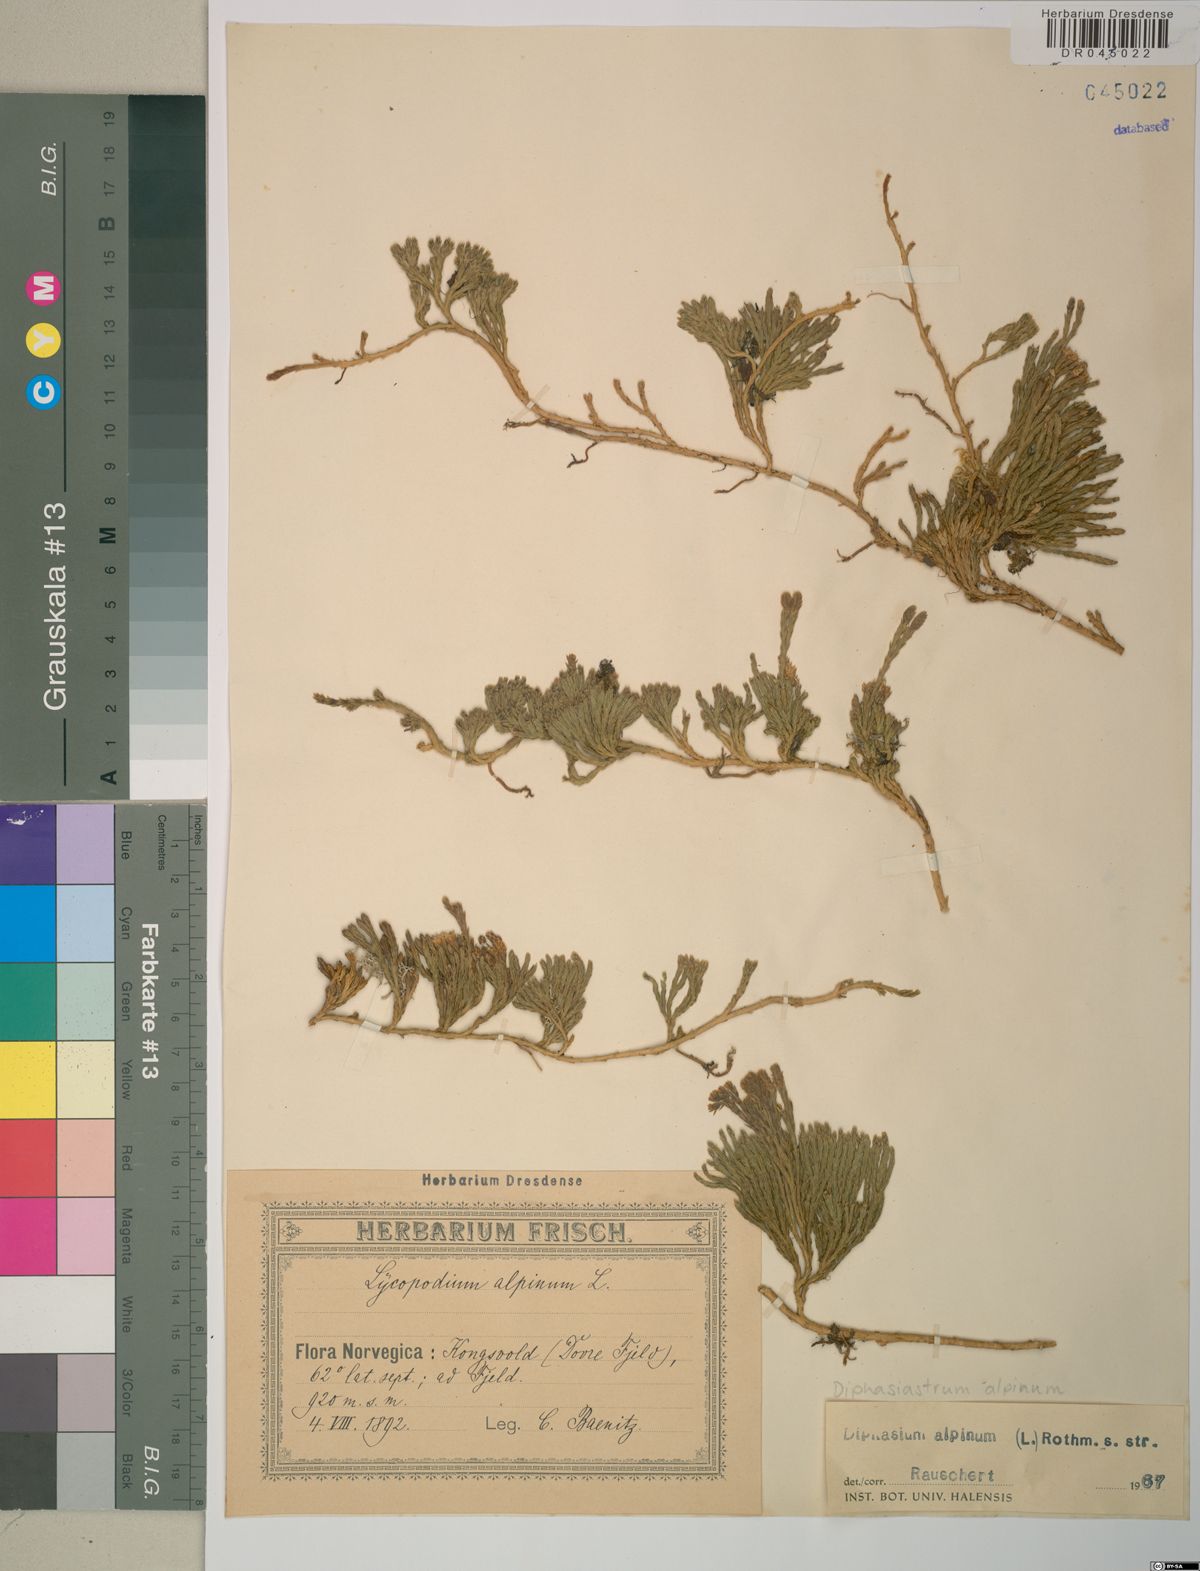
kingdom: Plantae
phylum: Tracheophyta
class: Lycopodiopsida
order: Lycopodiales
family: Lycopodiaceae
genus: Diphasiastrum
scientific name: Diphasiastrum alpinum
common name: Alpine clubmoss
